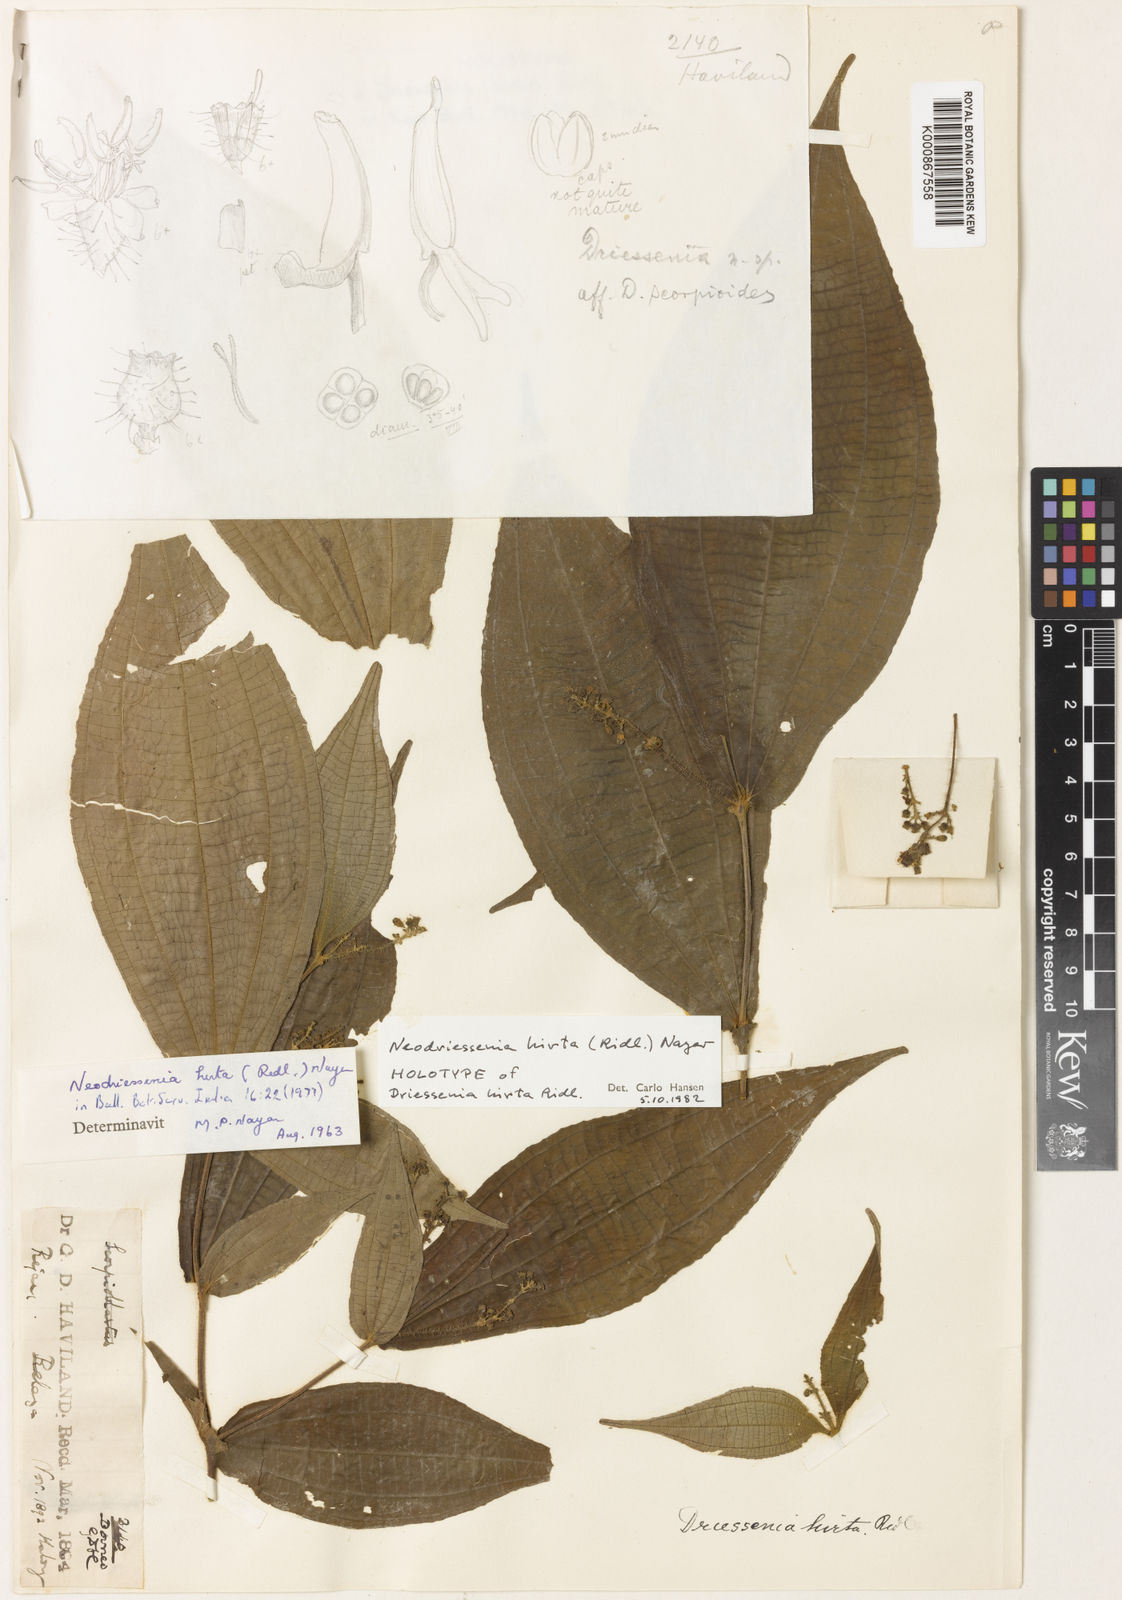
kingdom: Plantae
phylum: Tracheophyta
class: Magnoliopsida
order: Myrtales
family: Melastomataceae
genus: Neodriessenia
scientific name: Neodriessenia hirta
